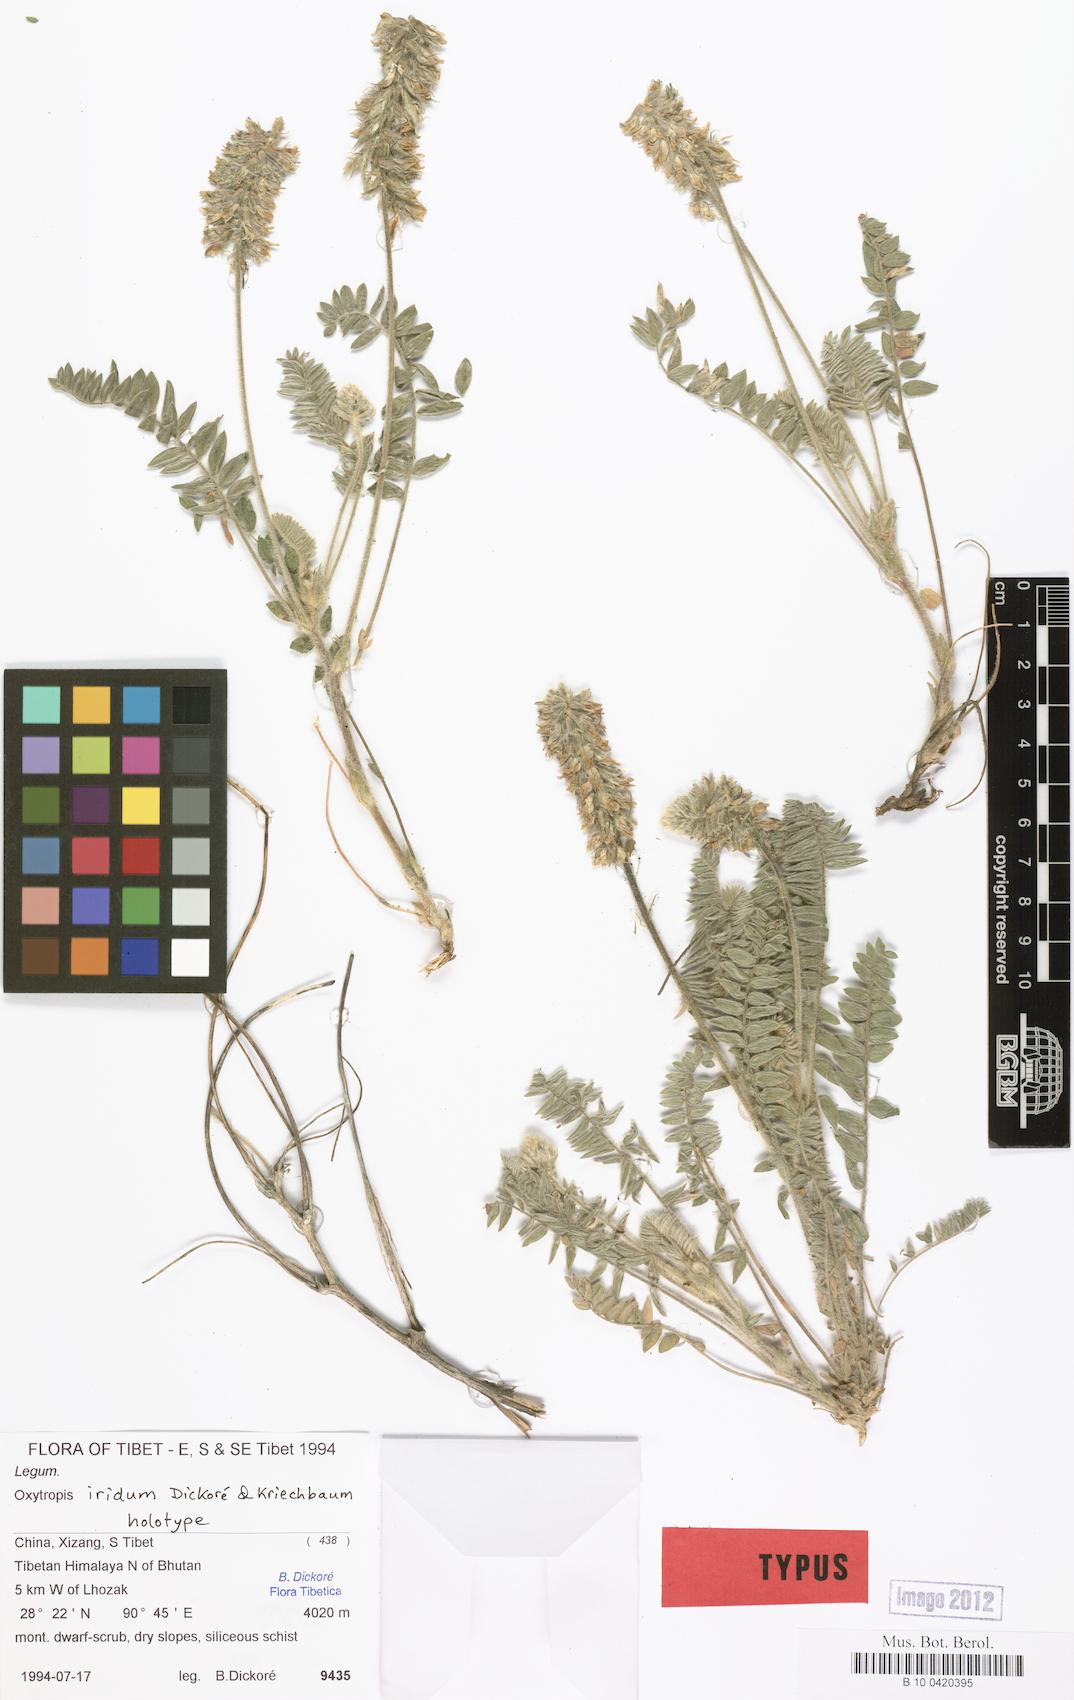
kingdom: Plantae
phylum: Tracheophyta
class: Magnoliopsida
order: Fabales
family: Fabaceae
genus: Oxytropis
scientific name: Oxytropis mollis
